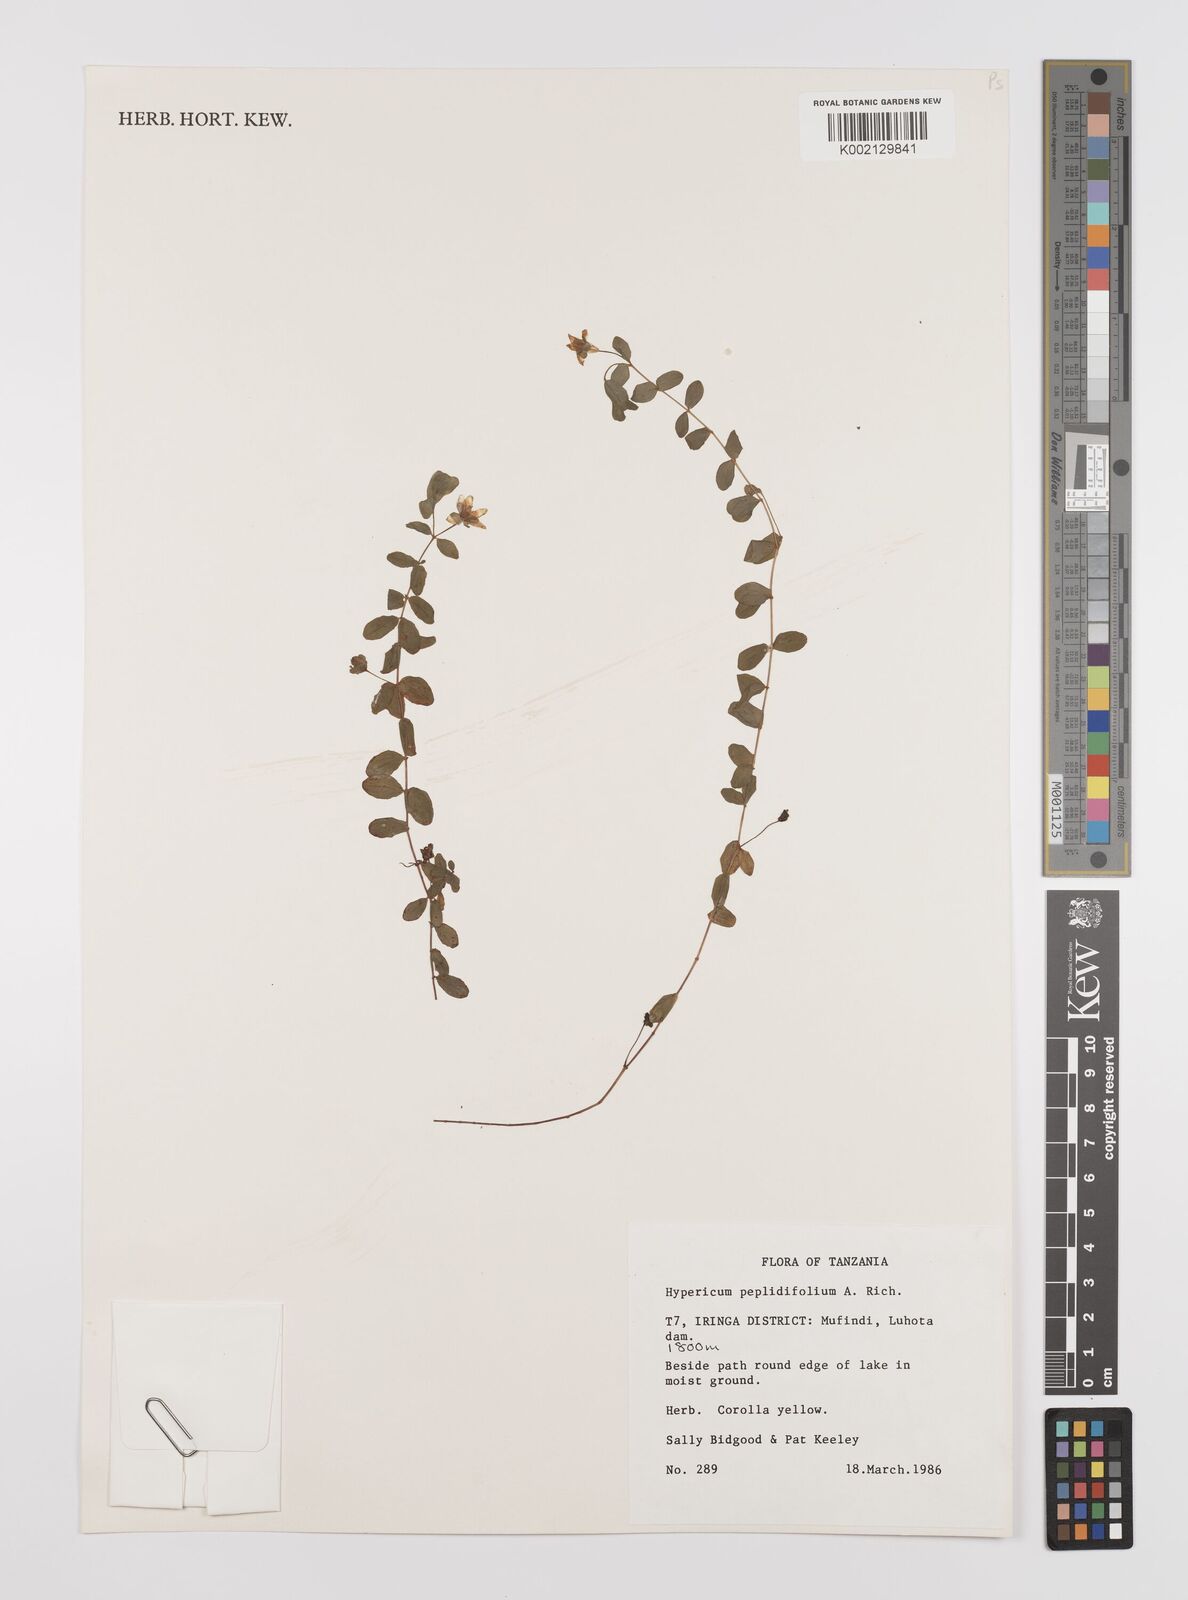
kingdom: Plantae
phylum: Tracheophyta
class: Magnoliopsida
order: Malpighiales
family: Hypericaceae
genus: Hypericum
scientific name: Hypericum peplidifolium
